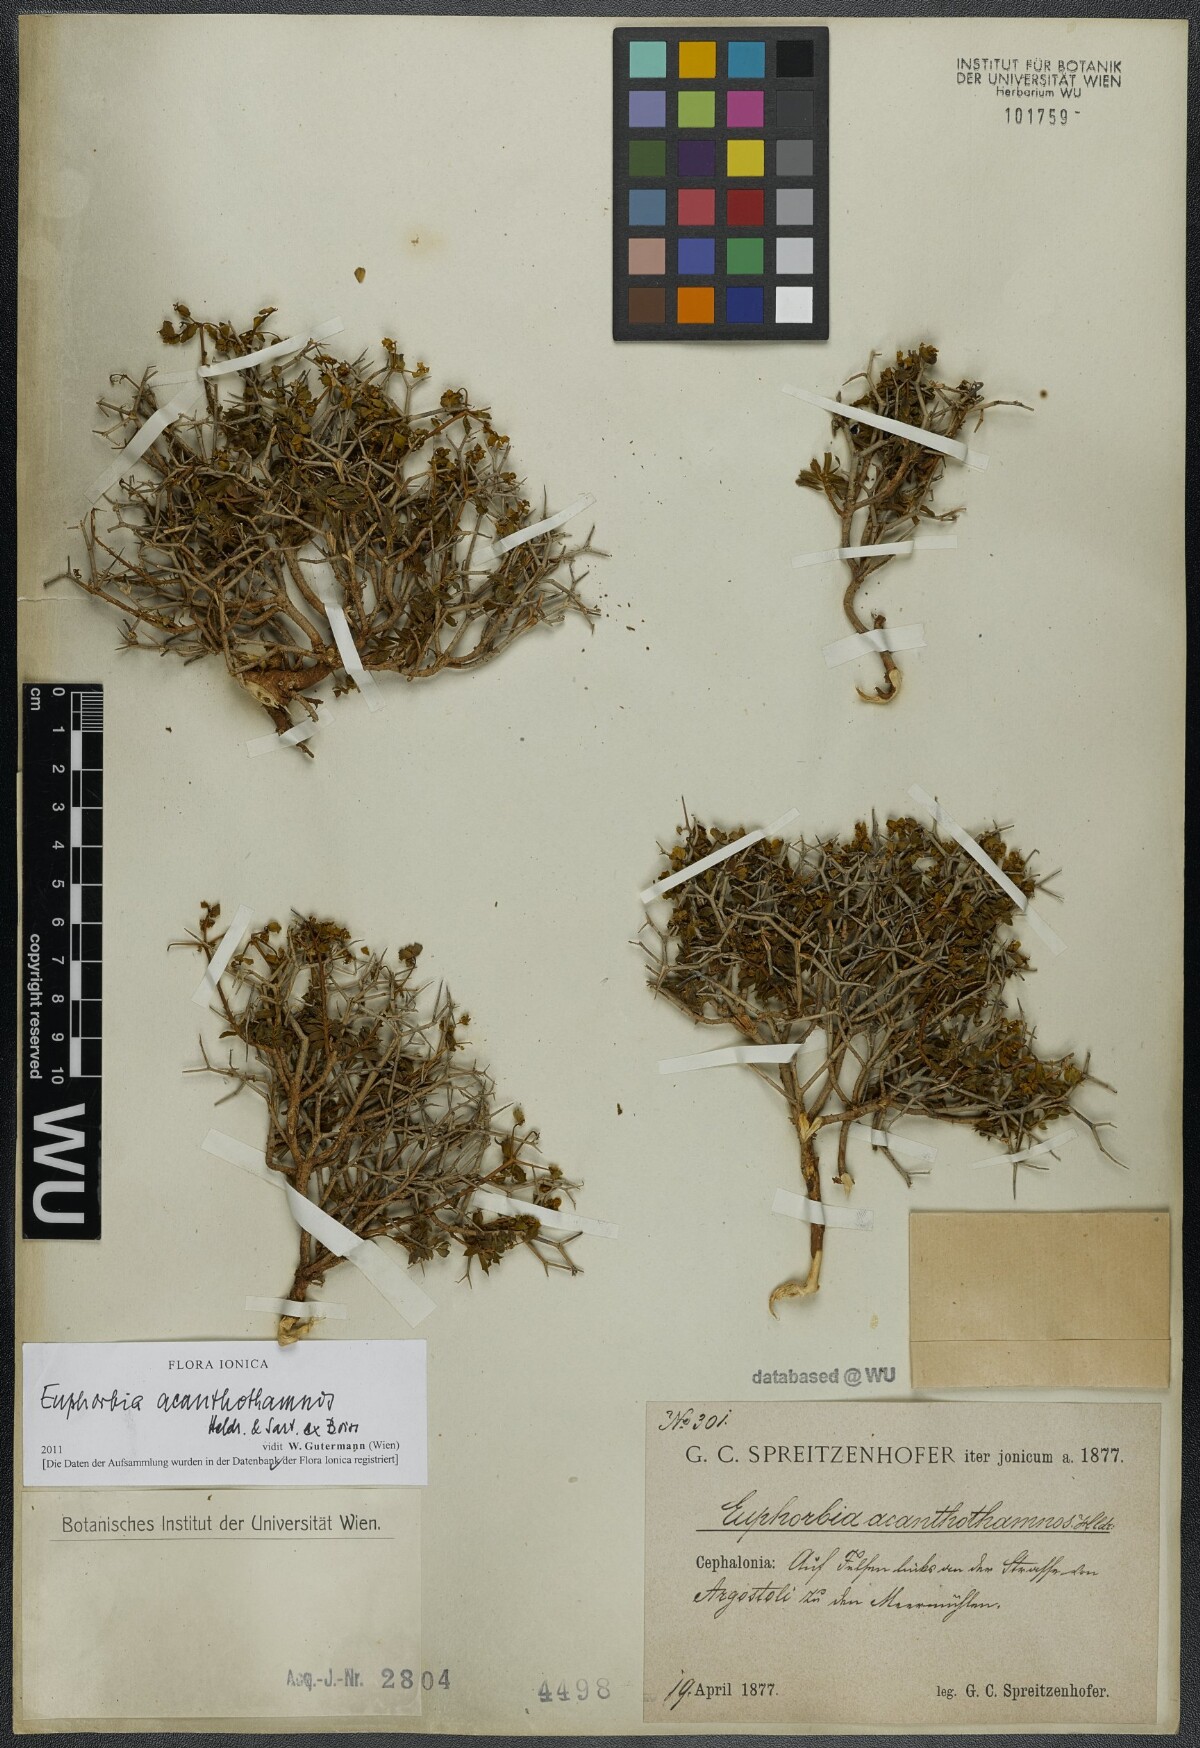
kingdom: Plantae
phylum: Tracheophyta
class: Magnoliopsida
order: Malpighiales
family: Euphorbiaceae
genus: Euphorbia
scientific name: Euphorbia acanthothamnos
